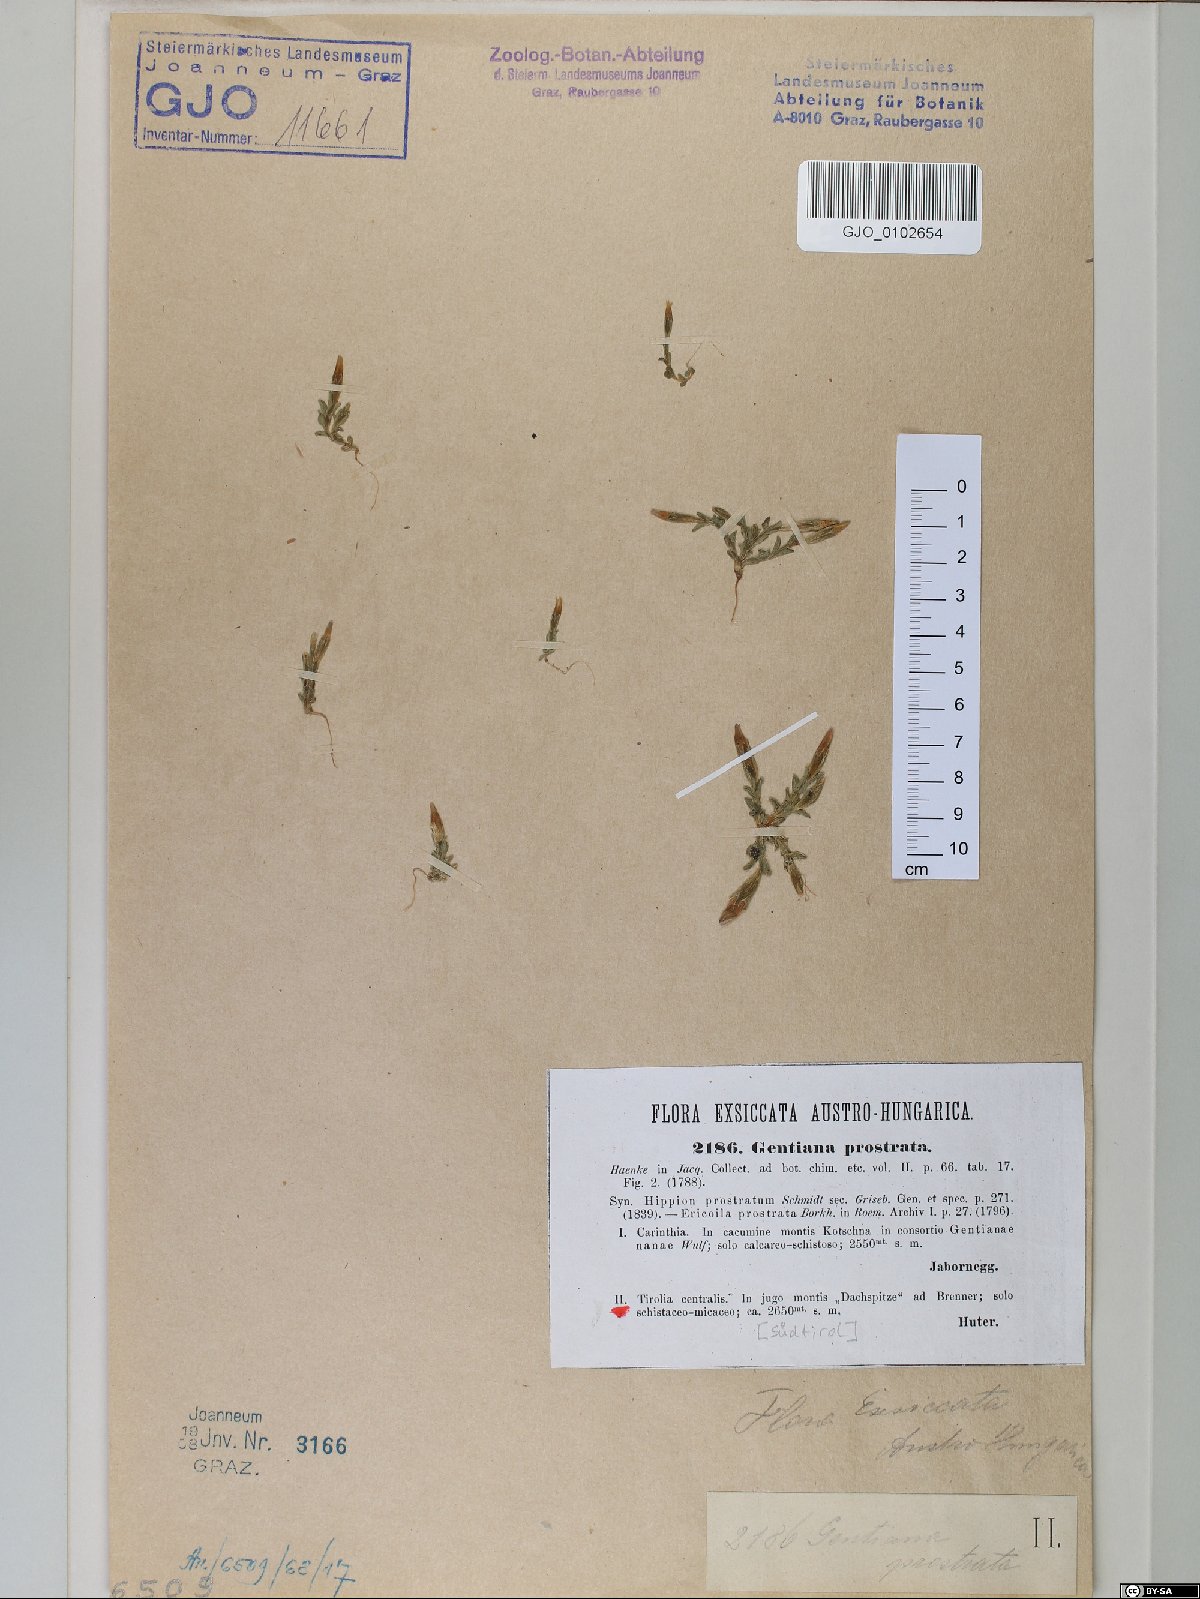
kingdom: Plantae
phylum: Tracheophyta
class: Magnoliopsida
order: Gentianales
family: Gentianaceae
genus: Gentiana
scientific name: Gentiana prostrata
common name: Moss gentian
